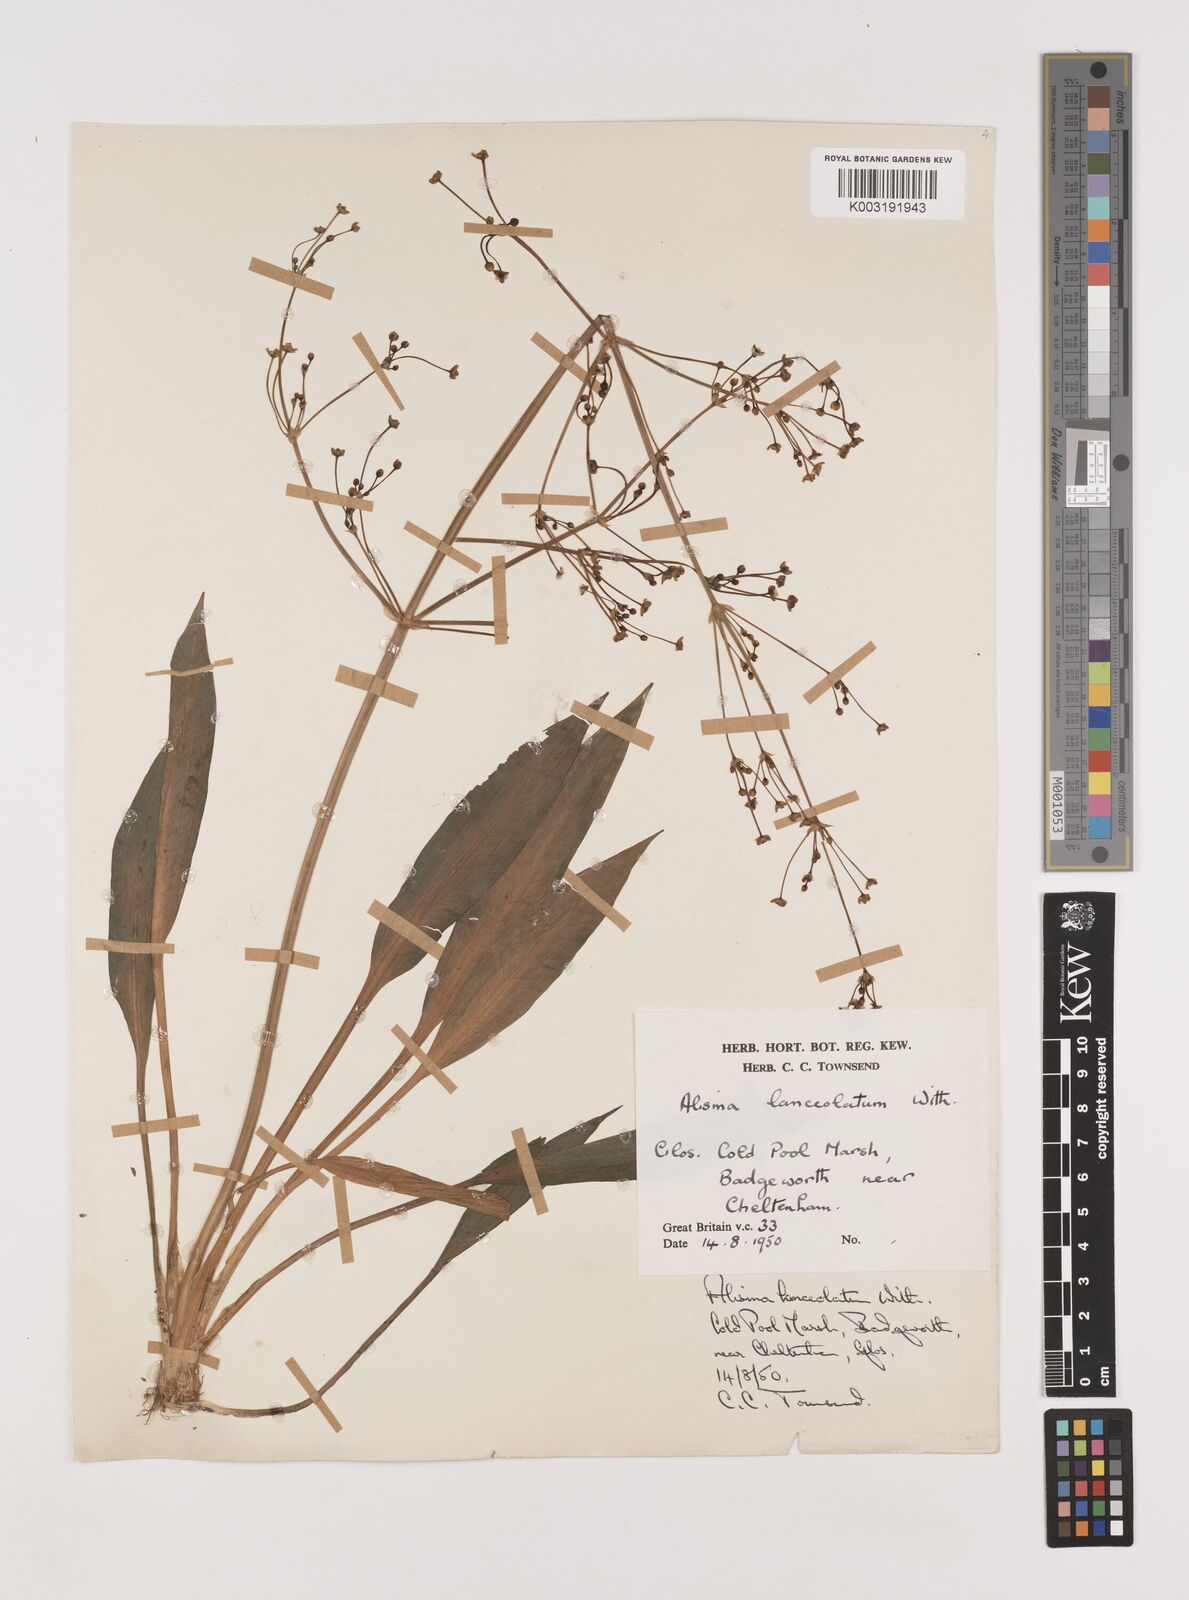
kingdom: Plantae
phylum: Tracheophyta
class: Liliopsida
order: Alismatales
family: Alismataceae
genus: Alisma
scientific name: Alisma lanceolatum
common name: Narrow-leaved water-plantain
